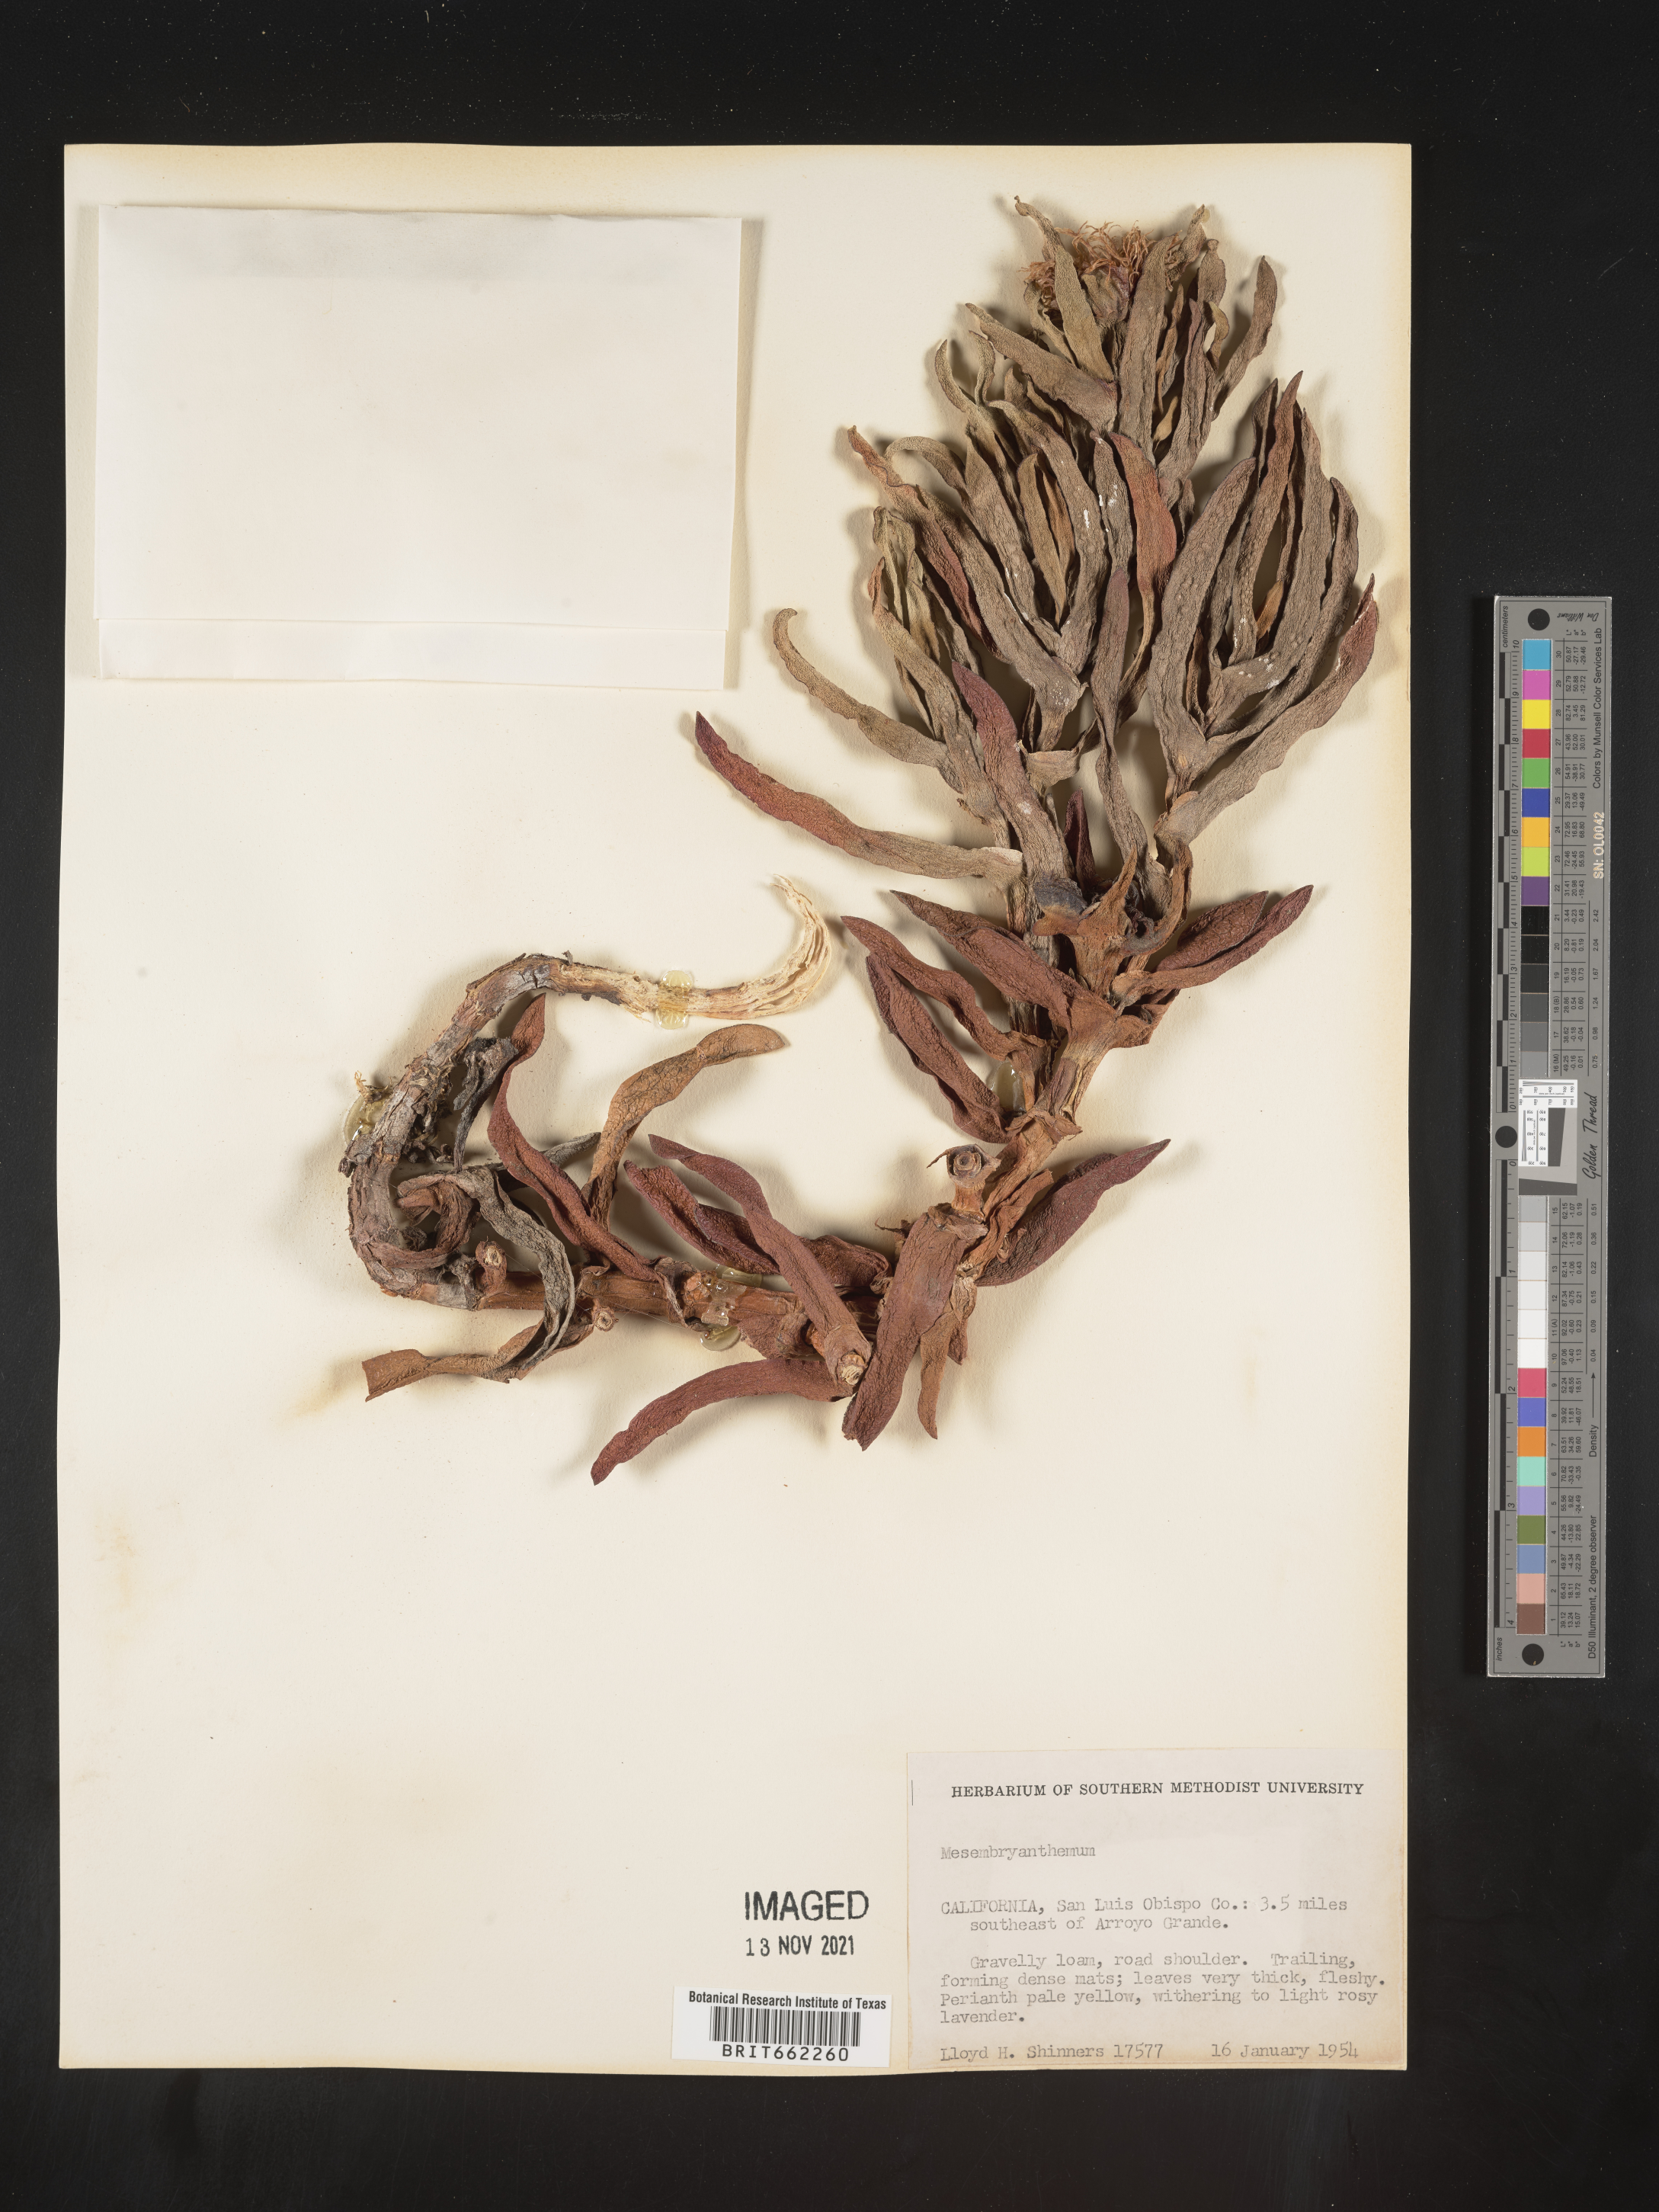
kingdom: Plantae
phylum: Tracheophyta
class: Magnoliopsida
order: Caryophyllales
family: Aizoaceae
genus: Mesembryanthemum
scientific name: Mesembryanthemum
